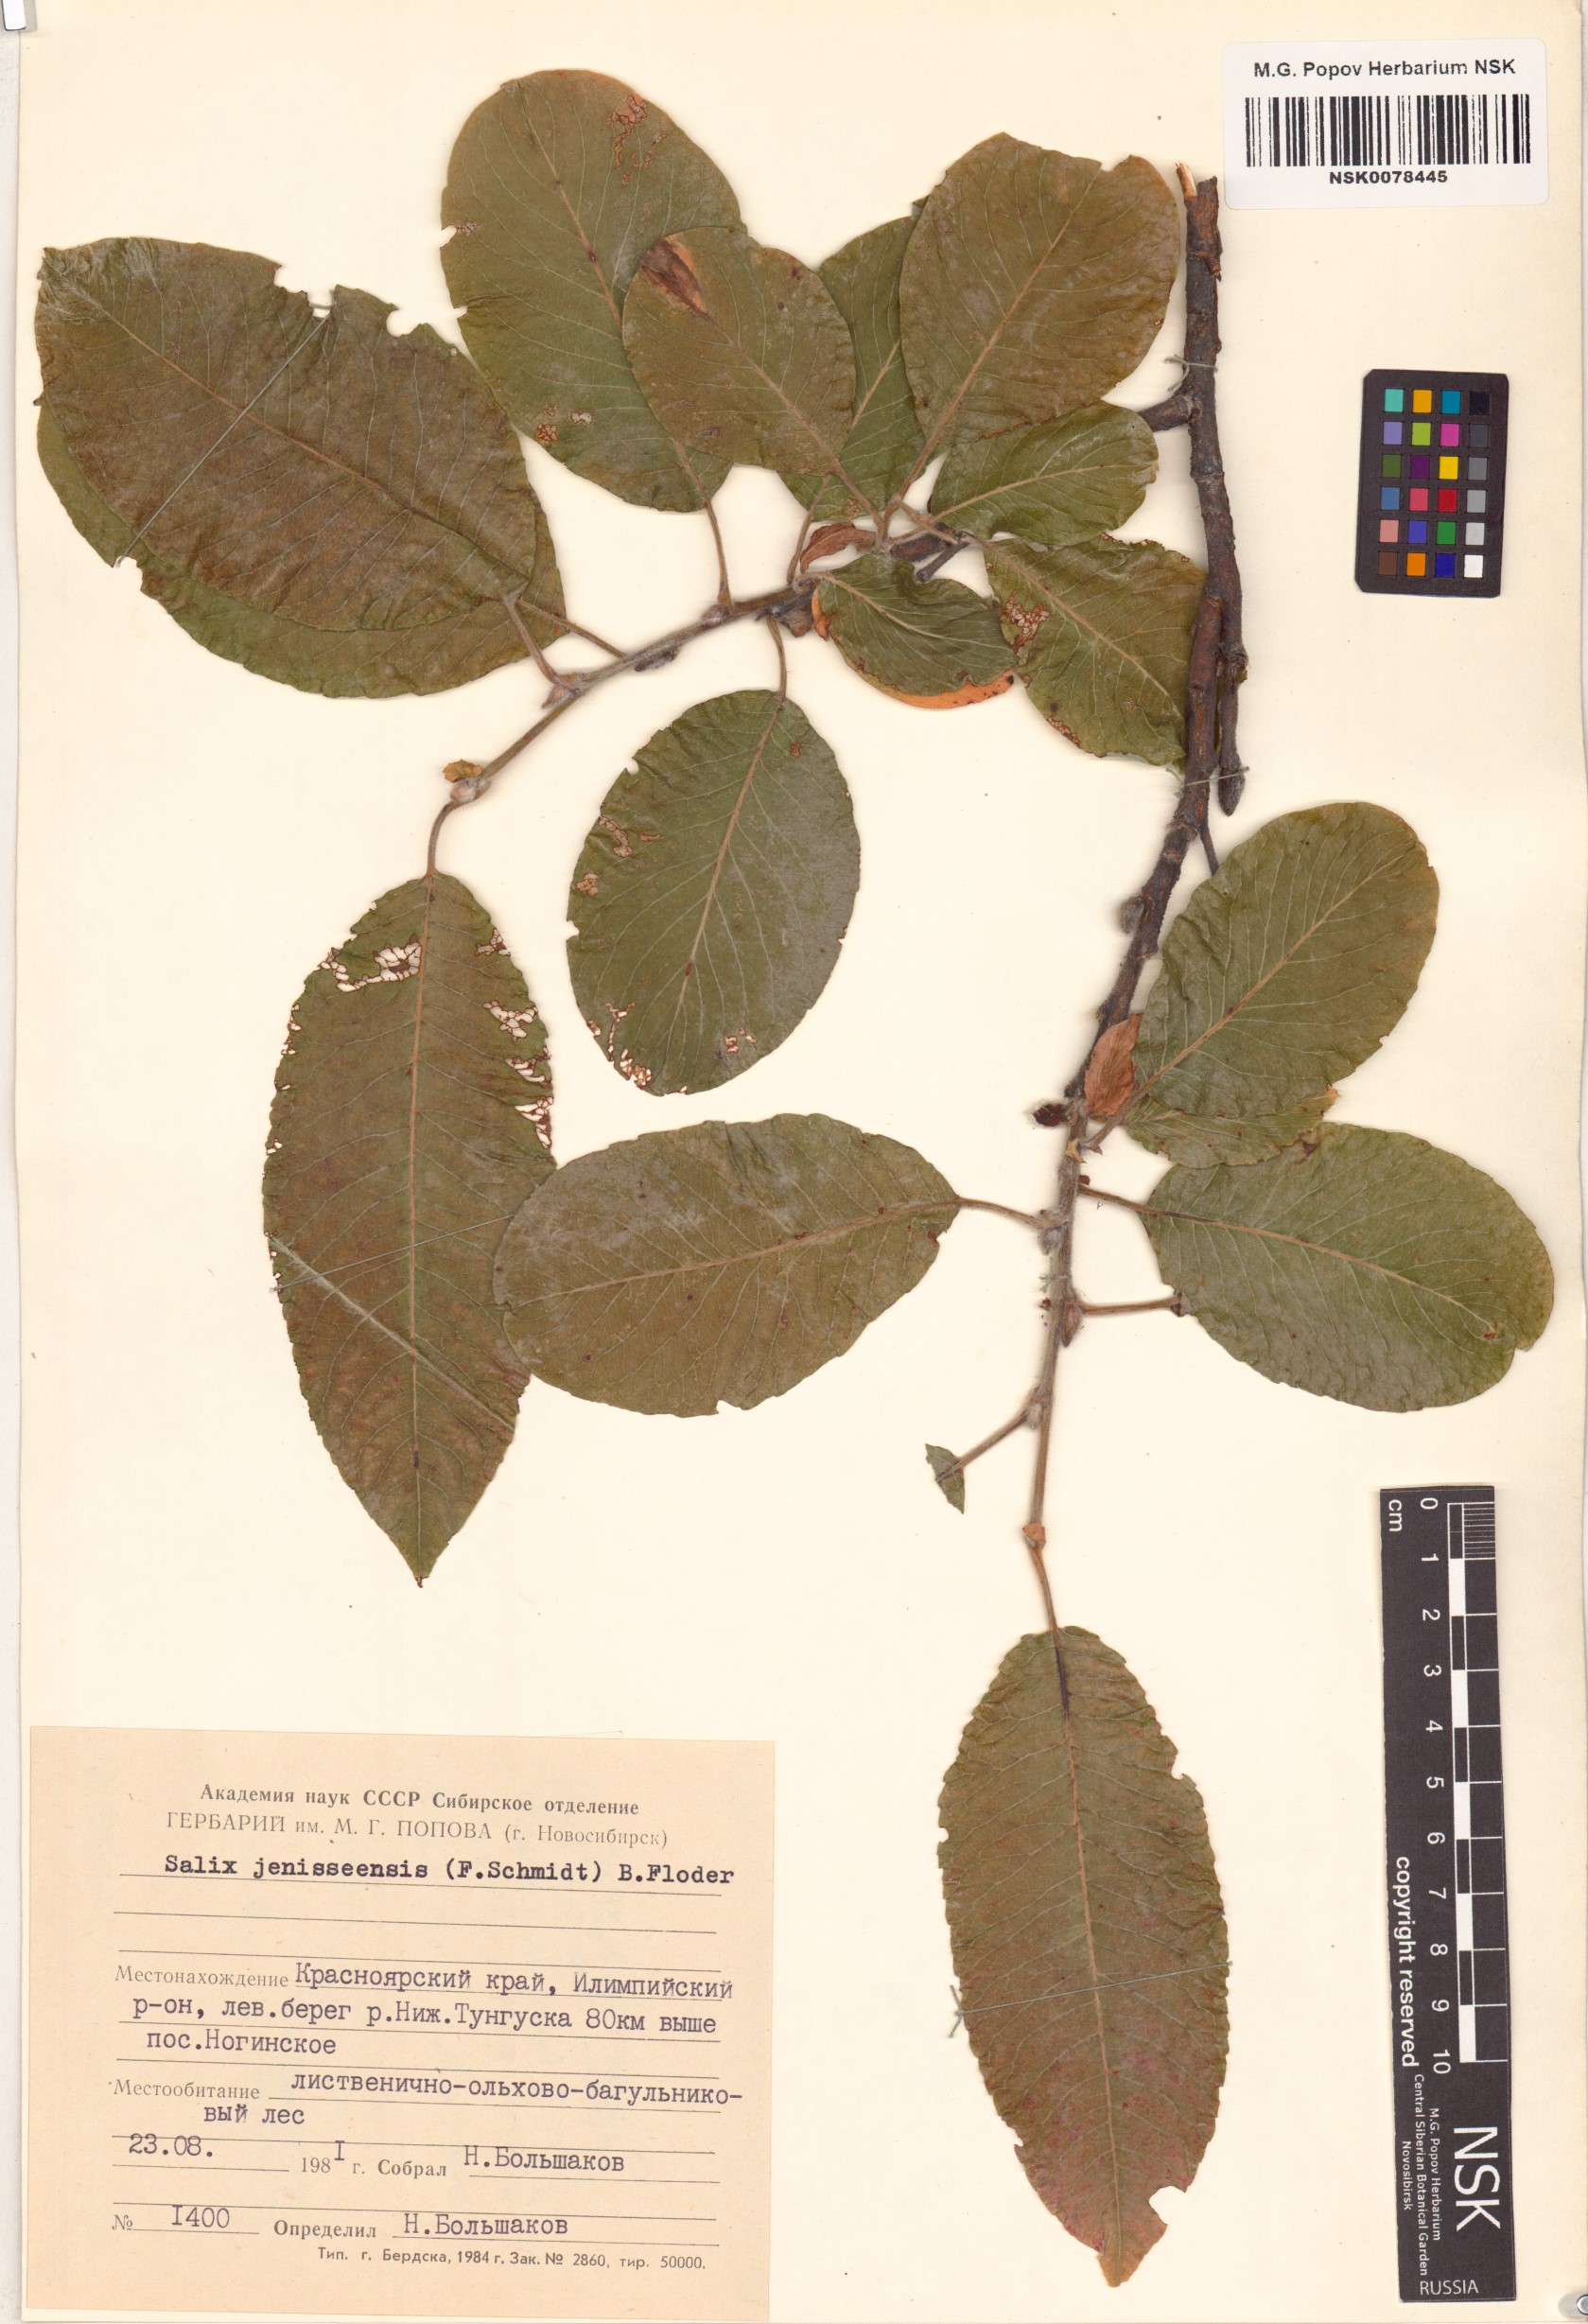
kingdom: Plantae
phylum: Tracheophyta
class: Magnoliopsida
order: Malpighiales
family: Salicaceae
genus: Salix
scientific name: Salix jenisseensis
